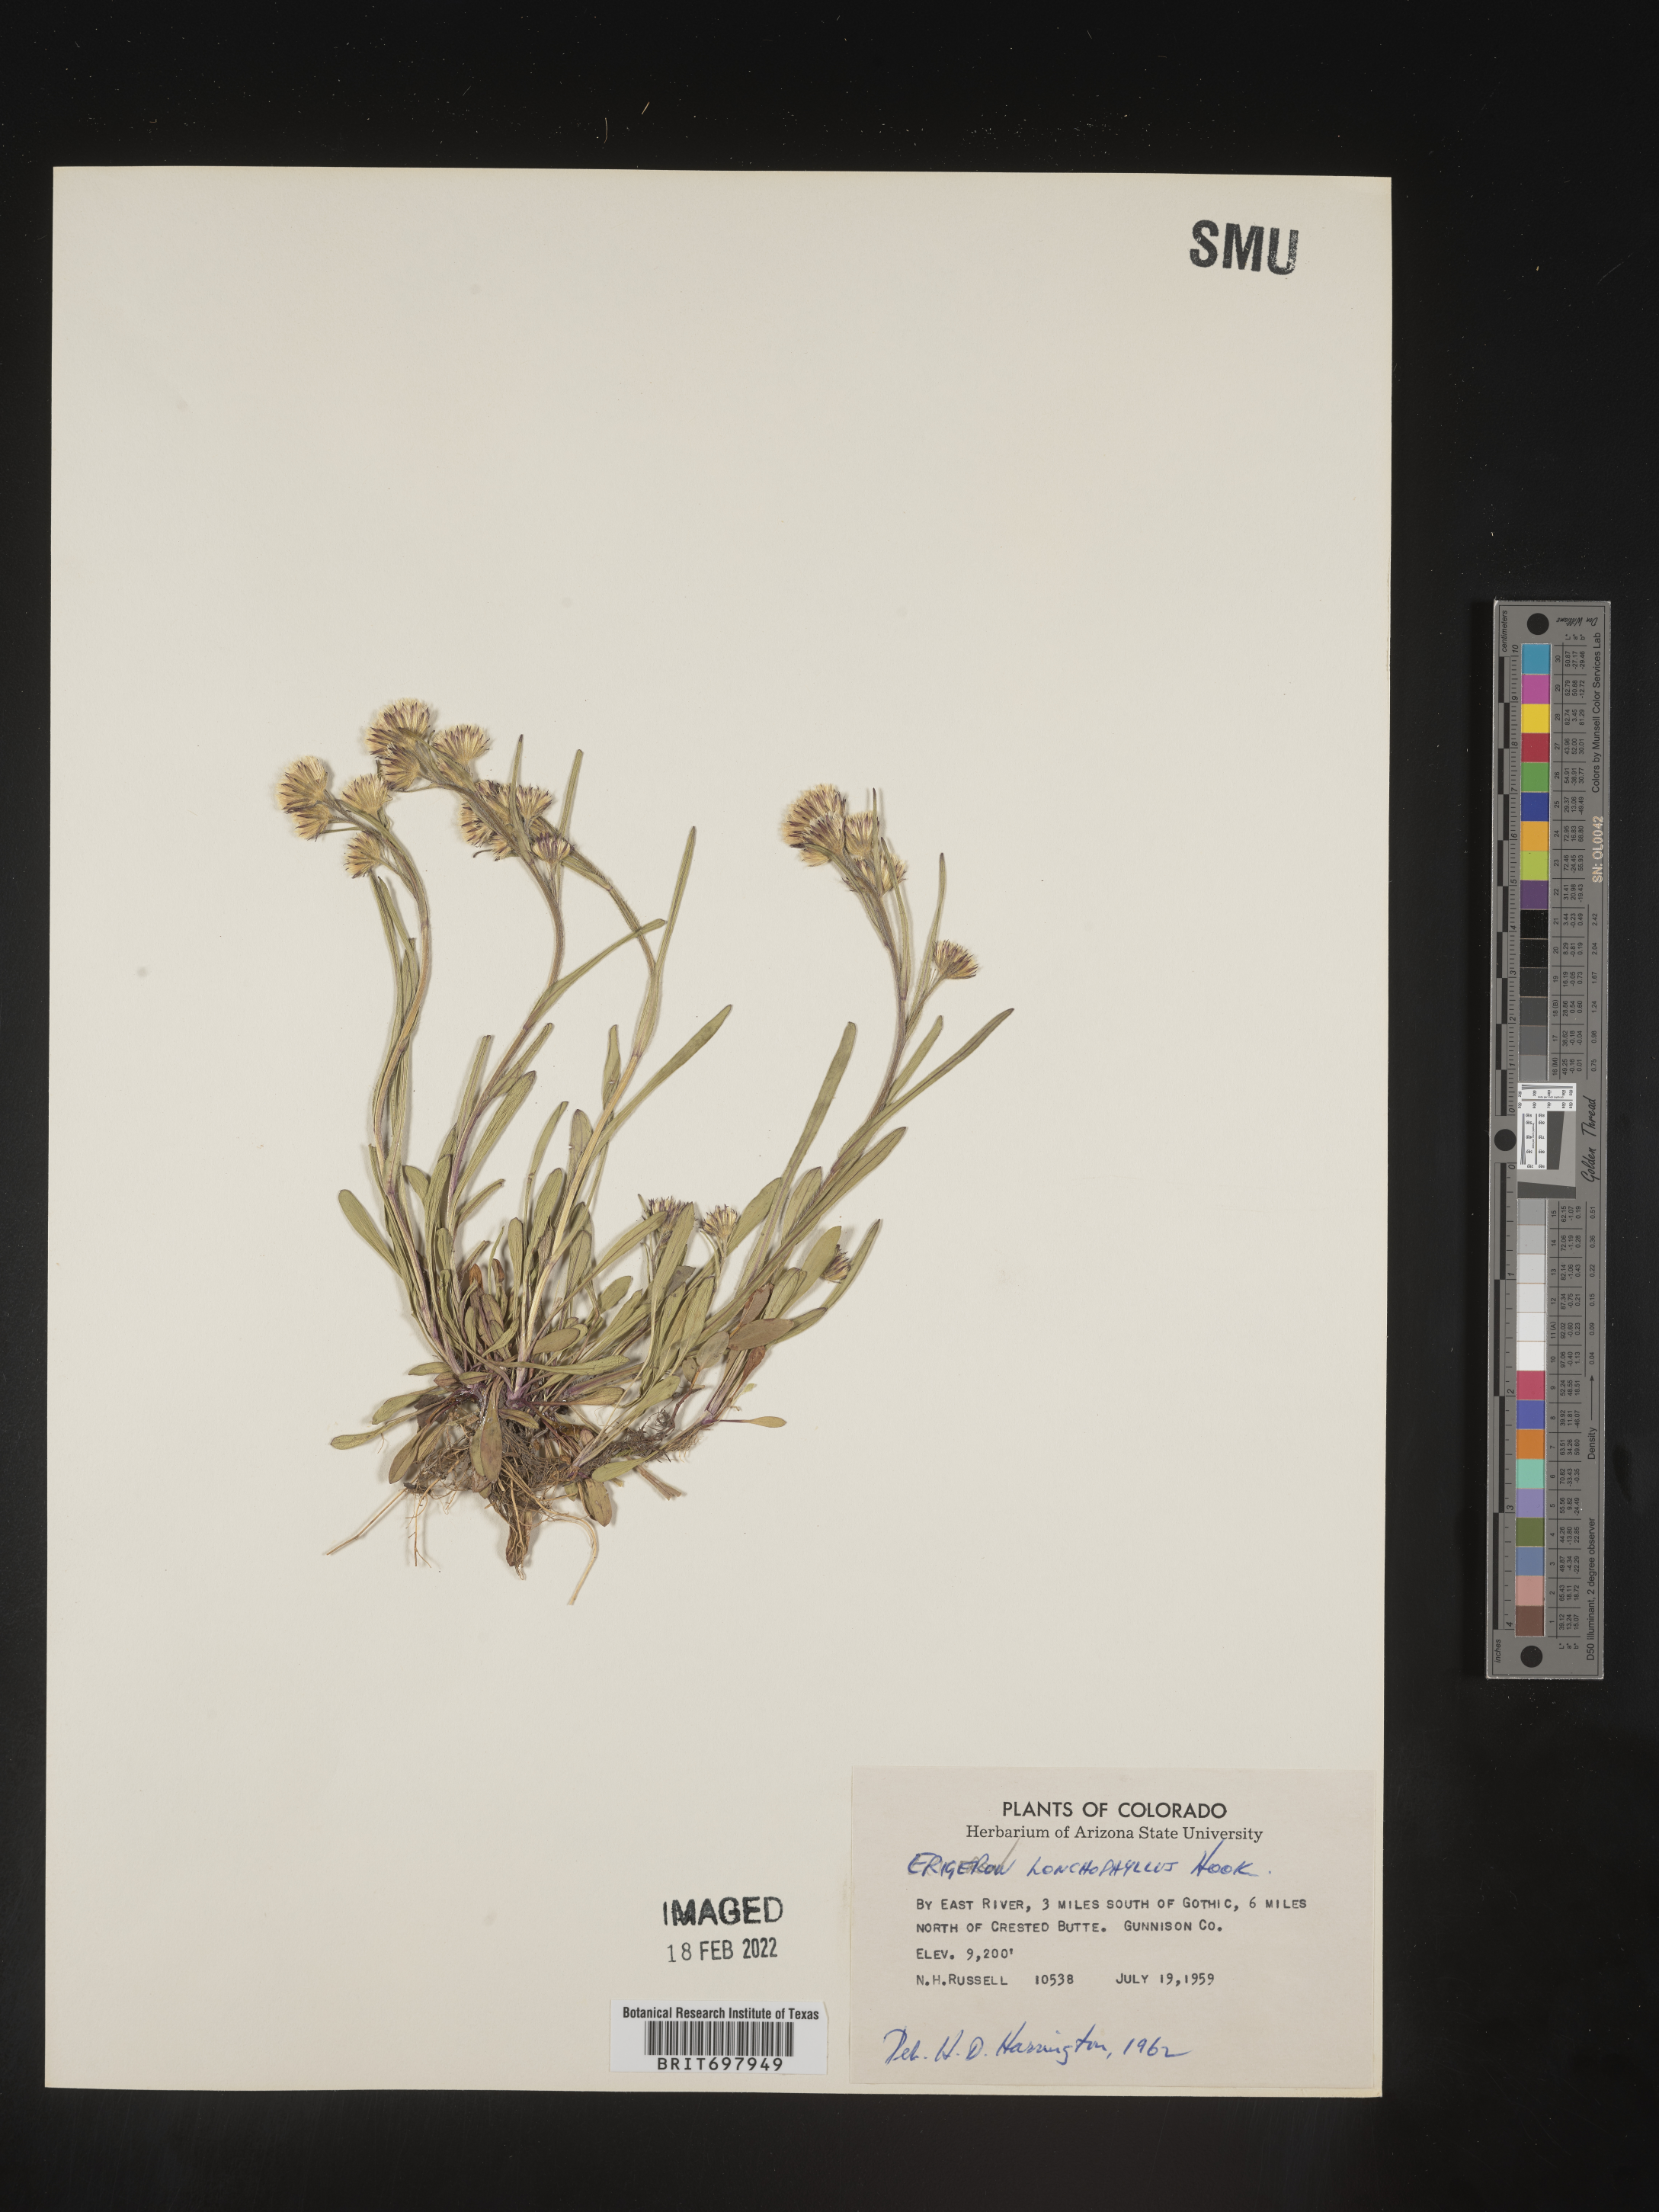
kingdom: Plantae
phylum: Tracheophyta
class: Magnoliopsida
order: Asterales
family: Asteraceae
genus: Erigeron
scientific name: Erigeron lonchophyllus
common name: Short-ray fleabane
